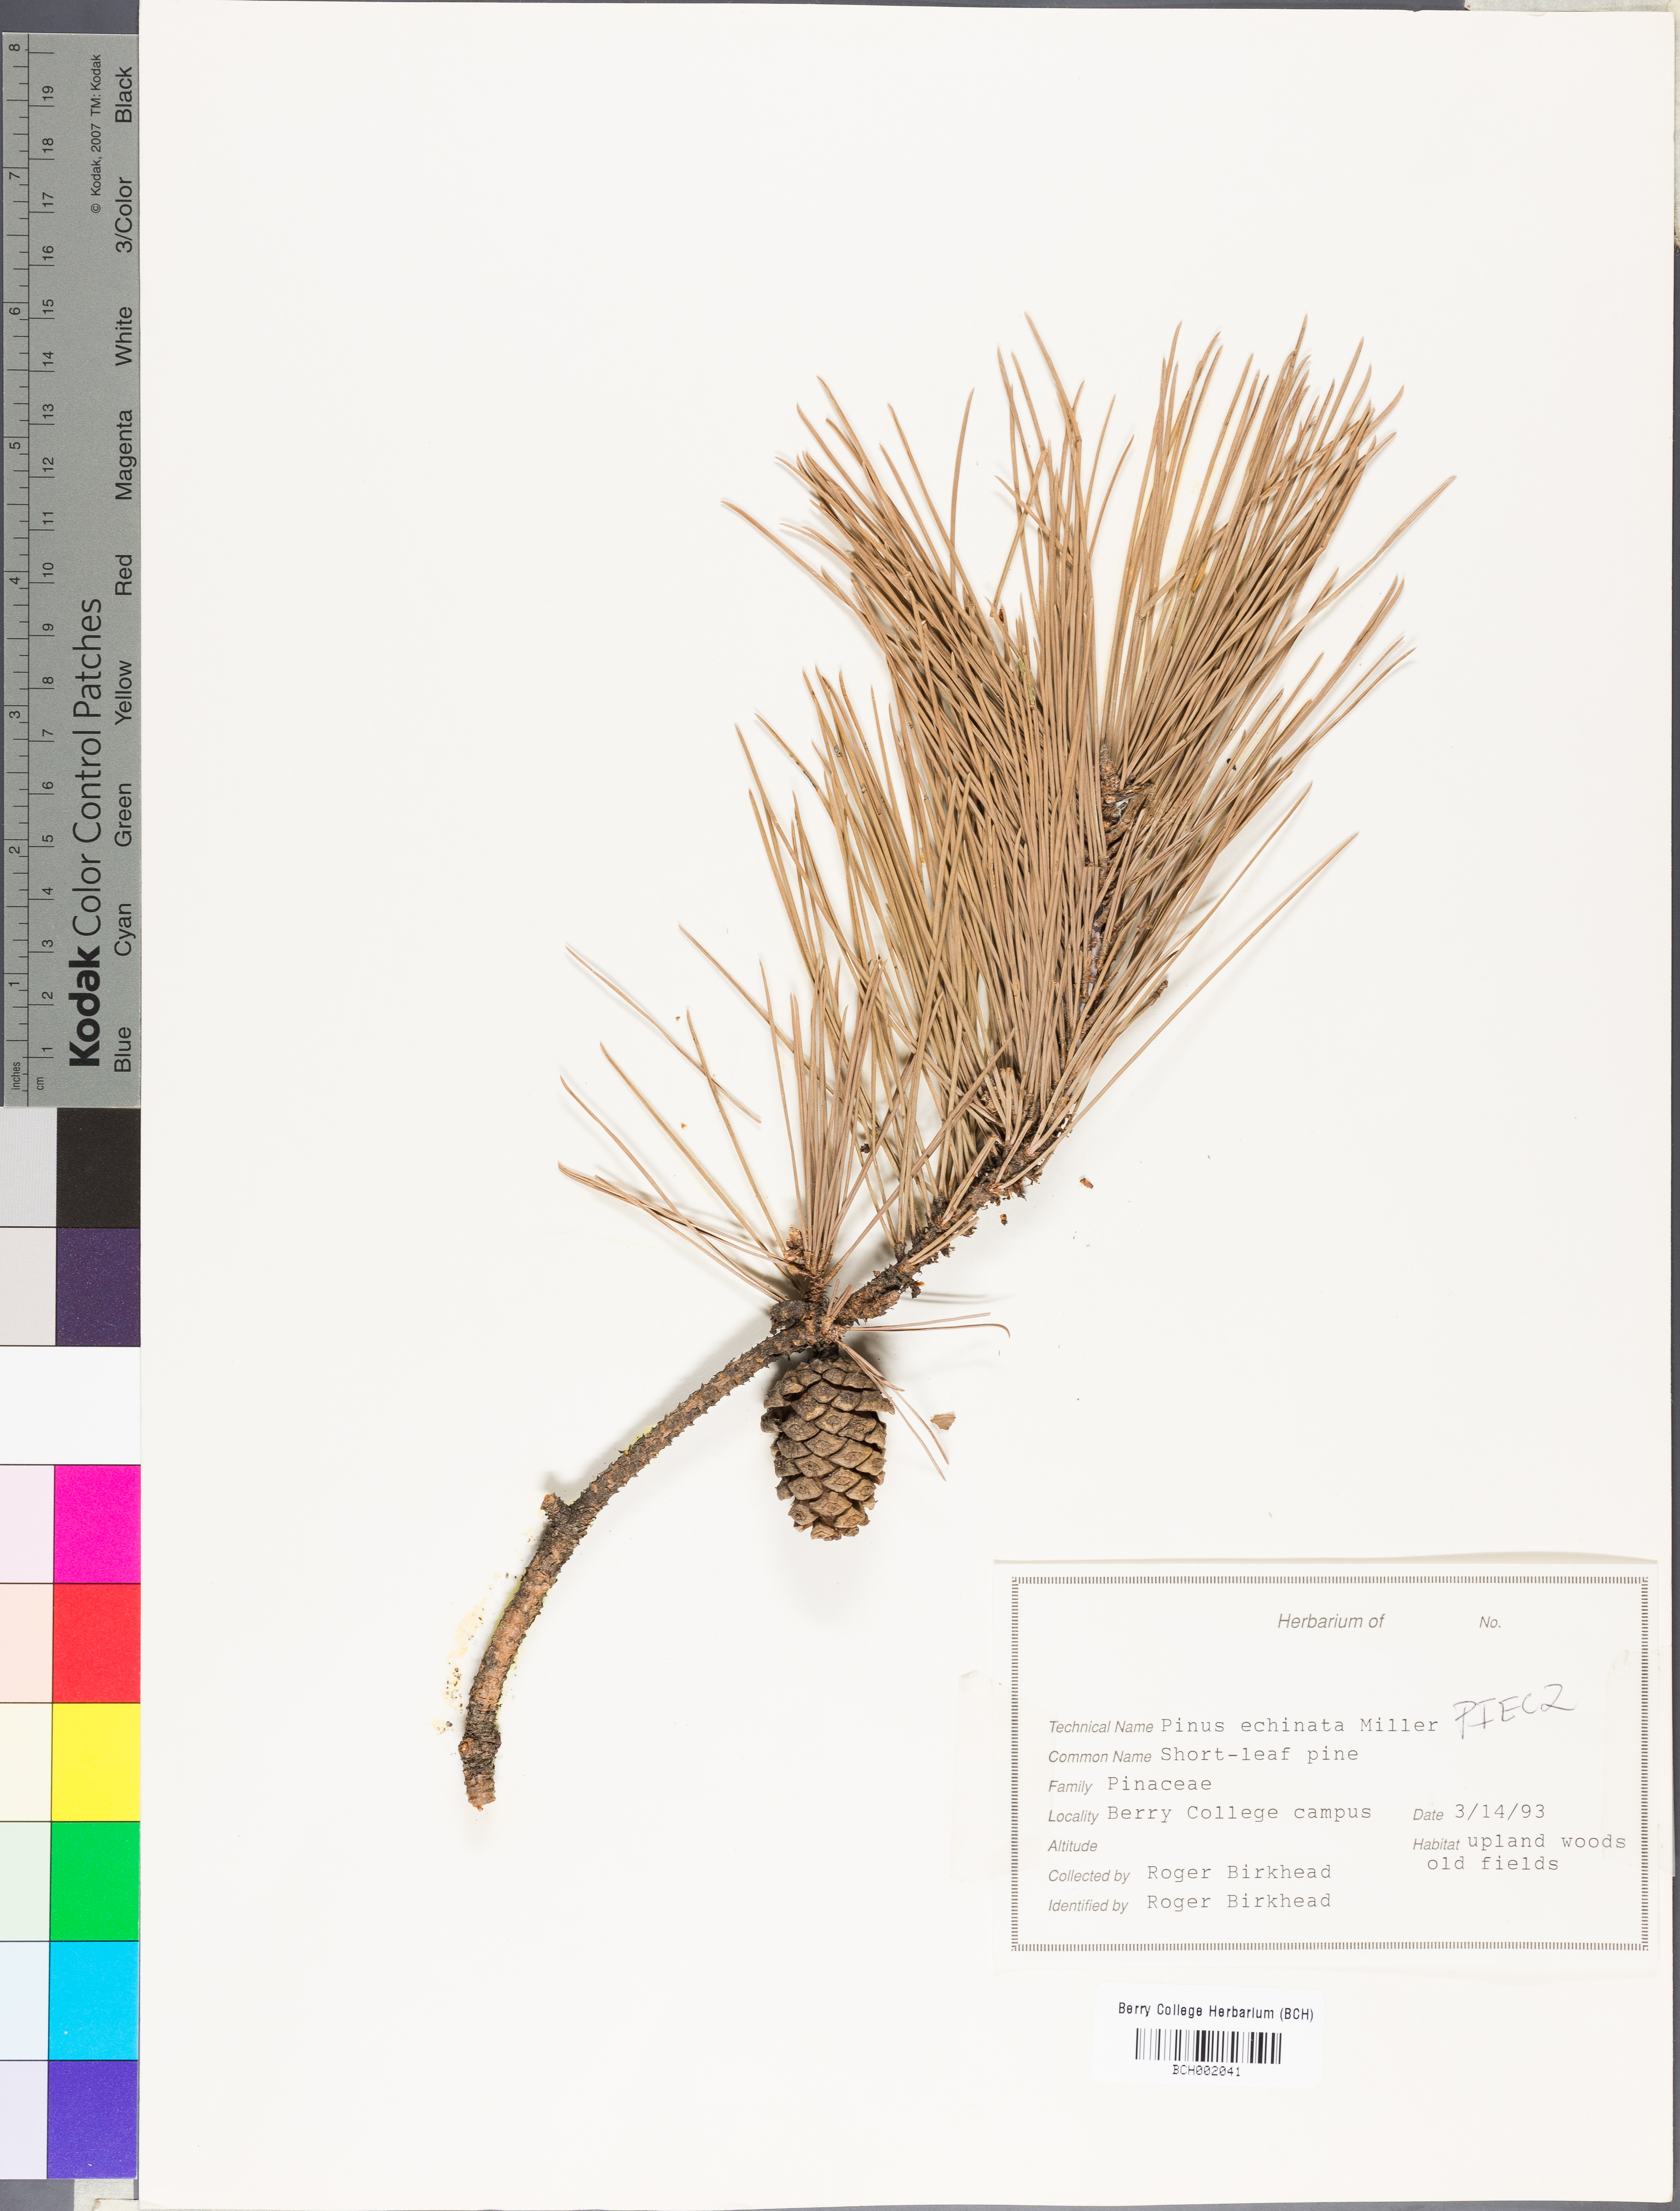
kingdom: Plantae
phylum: Tracheophyta
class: Pinopsida
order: Pinales
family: Pinaceae
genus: Pinus
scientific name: Pinus echinata
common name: Shortleaf pine
